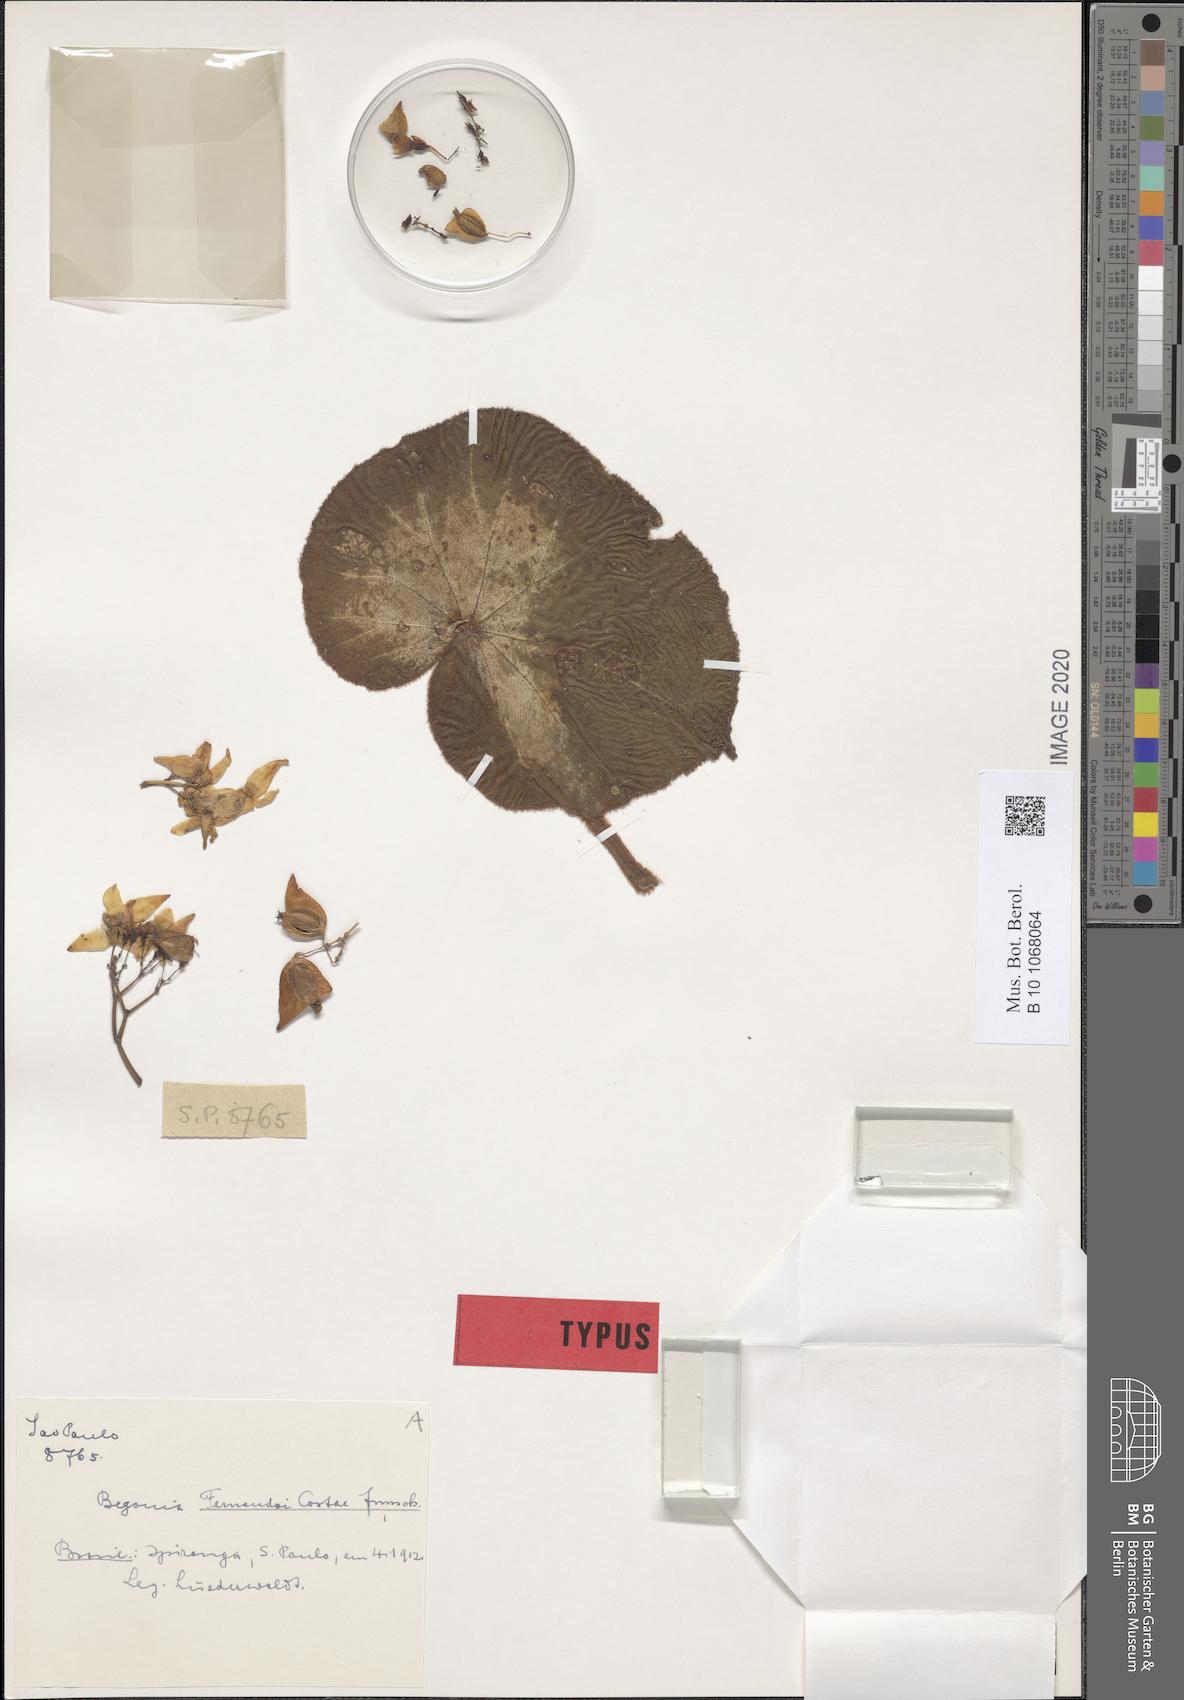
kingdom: Plantae
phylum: Tracheophyta
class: Magnoliopsida
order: Cucurbitales
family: Begoniaceae
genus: Begonia
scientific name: Begonia fernando-costae
